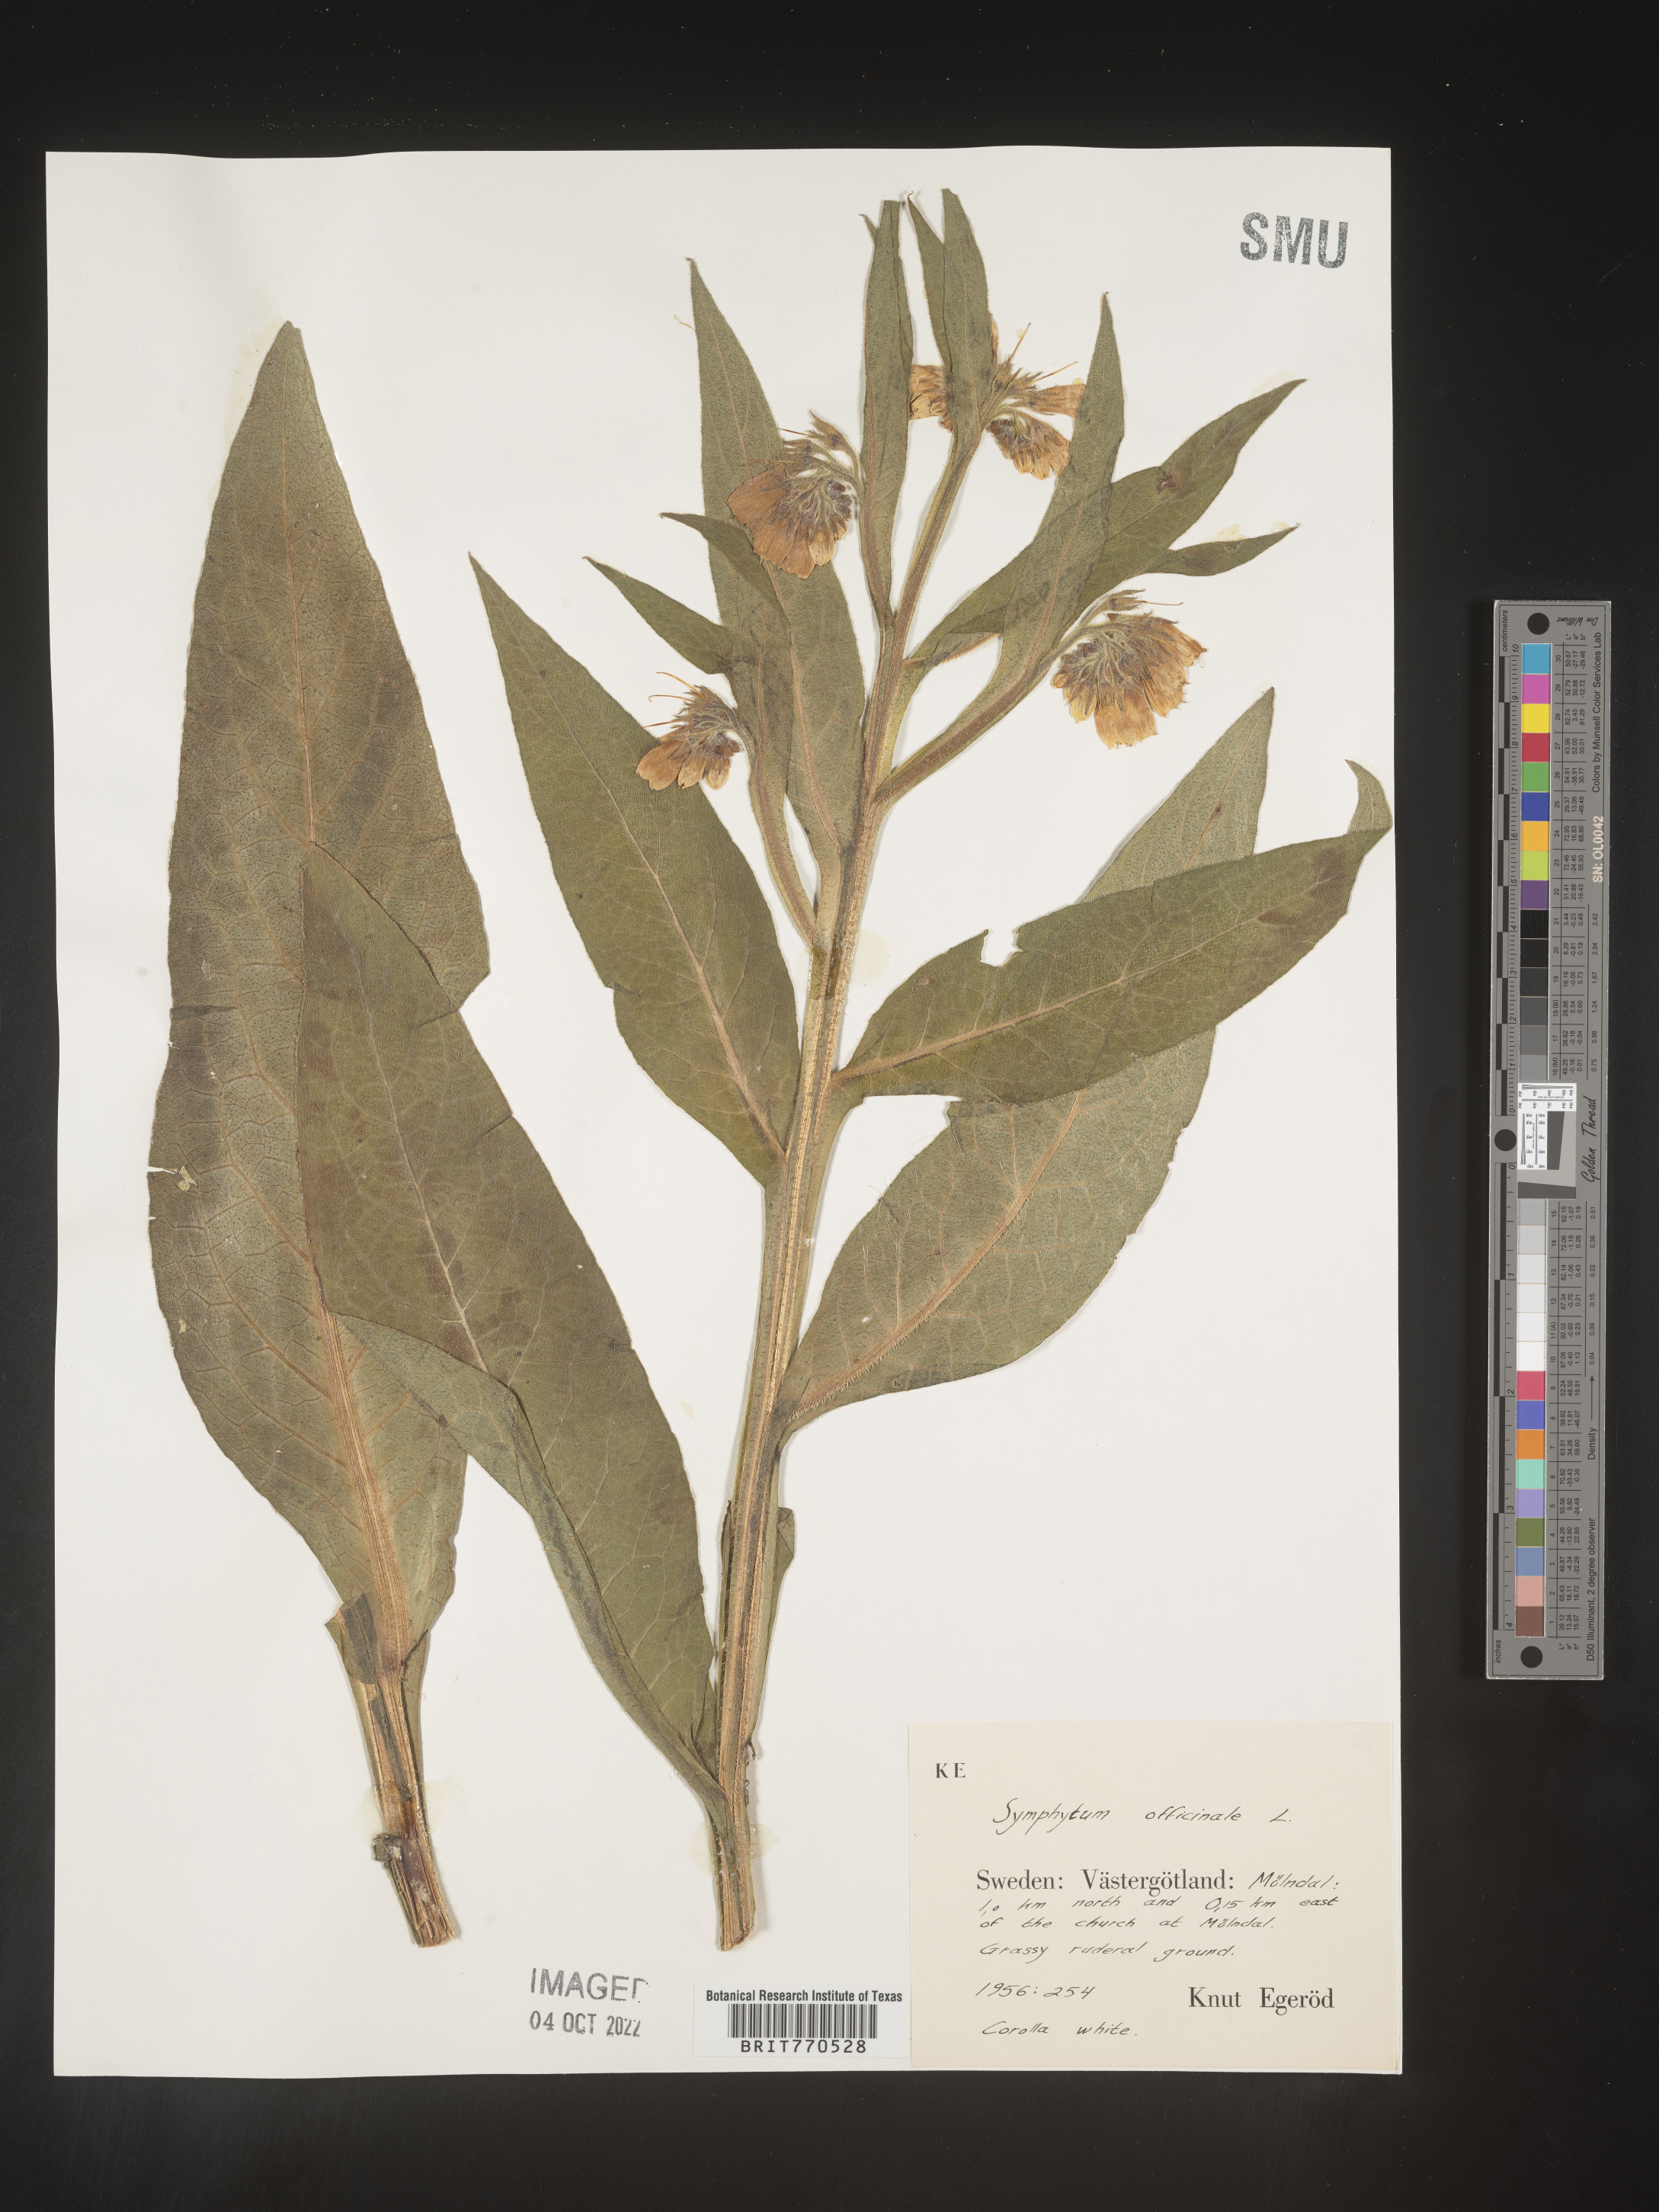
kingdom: Plantae
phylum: Tracheophyta
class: Magnoliopsida
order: Boraginales
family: Boraginaceae
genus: Symphytum
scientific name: Symphytum
